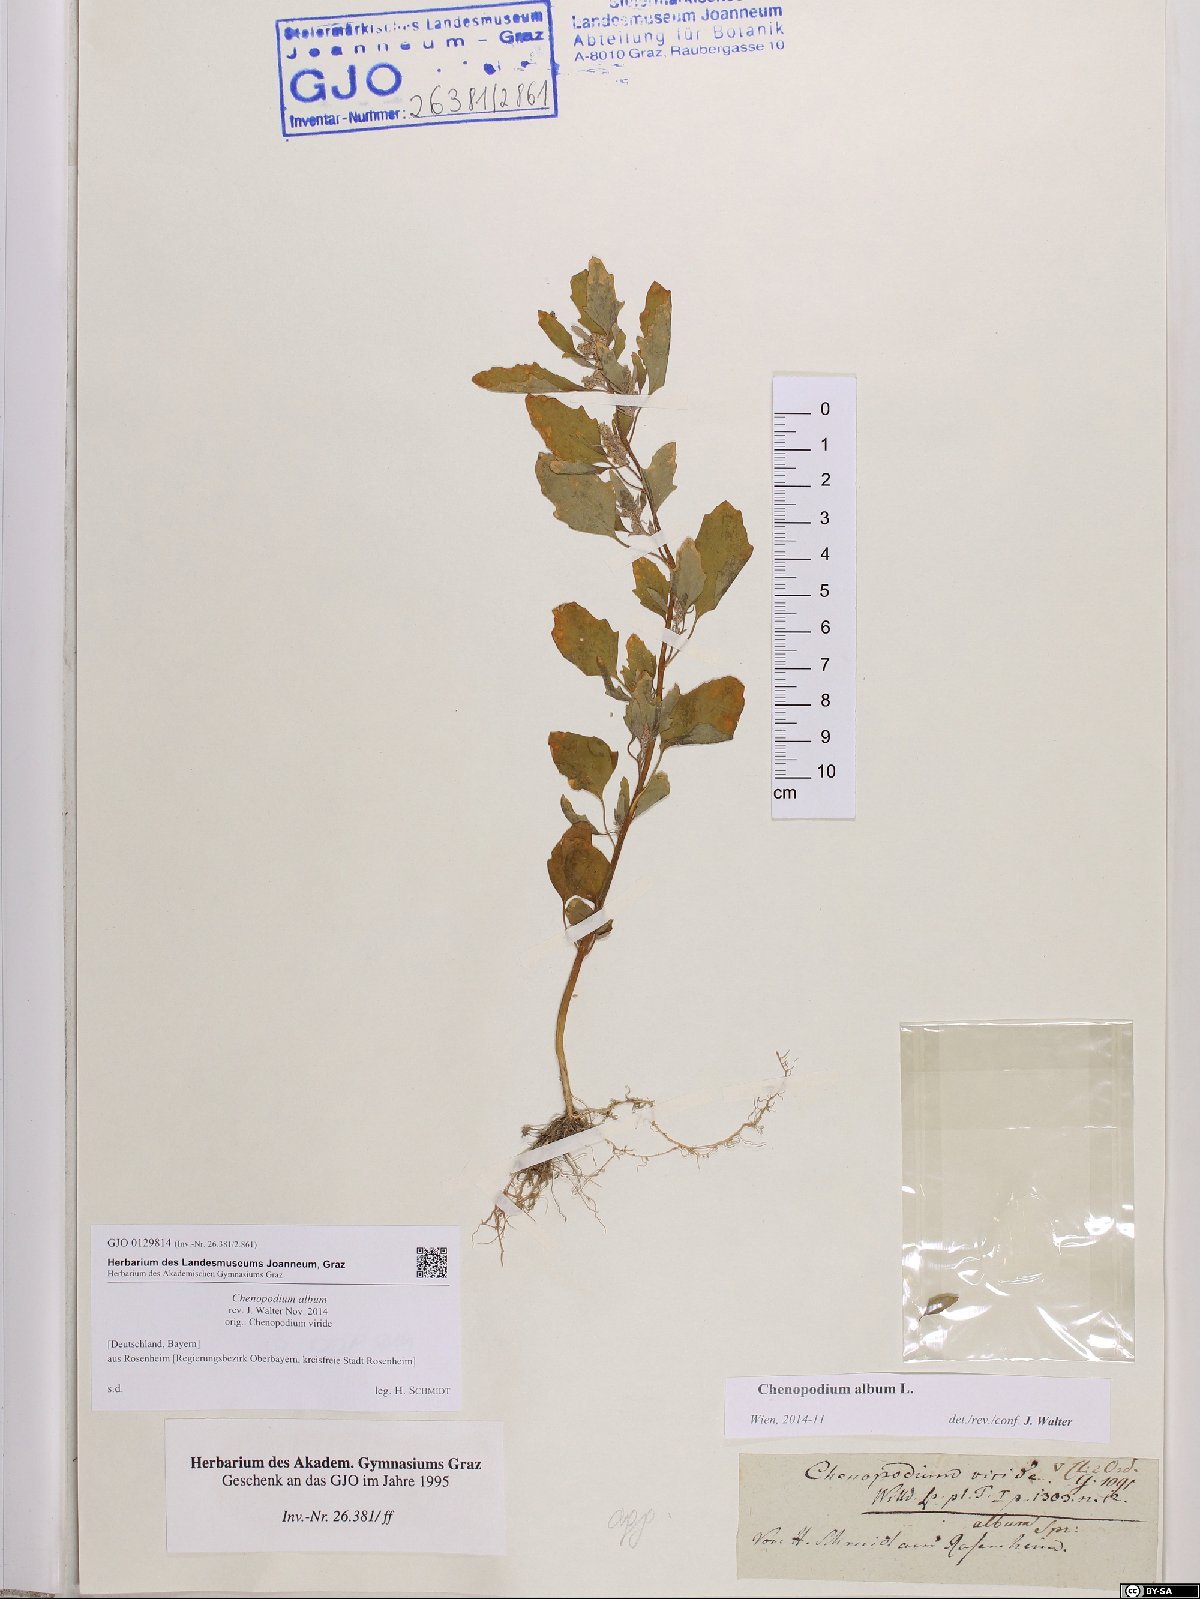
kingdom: Plantae
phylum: Tracheophyta
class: Magnoliopsida
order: Caryophyllales
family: Amaranthaceae
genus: Chenopodium
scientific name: Chenopodium album
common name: Fat-hen
